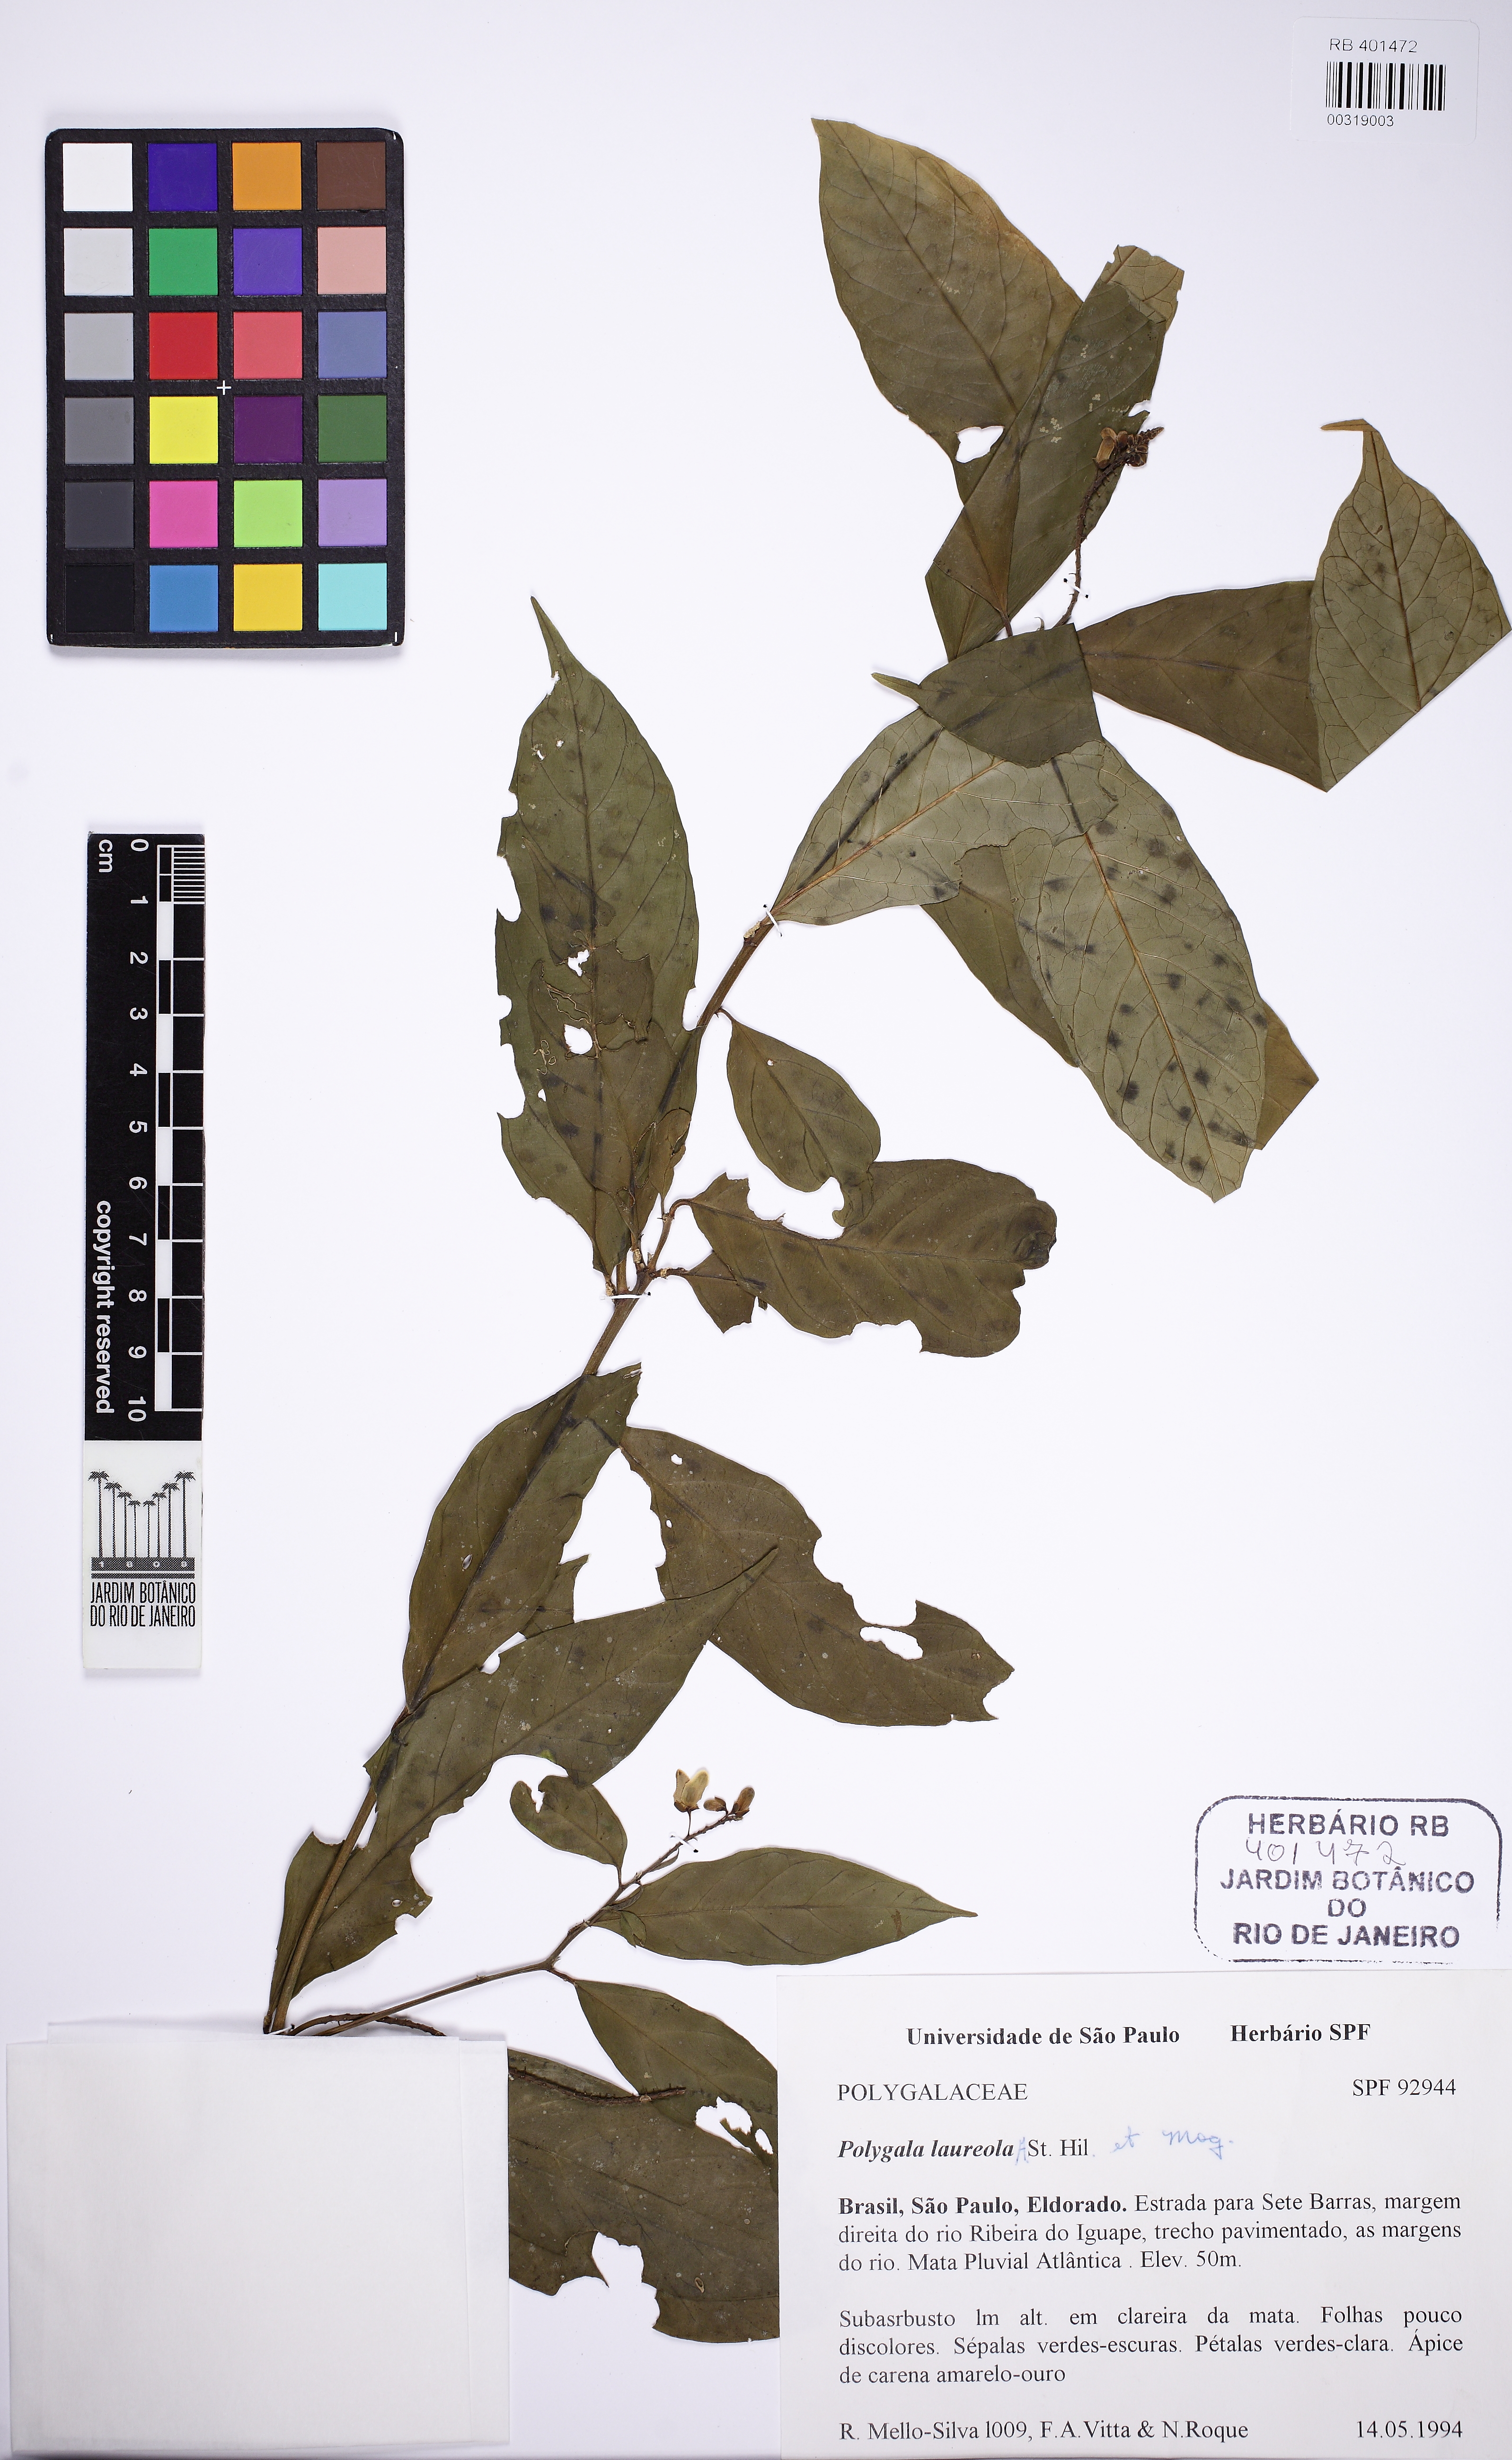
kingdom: Plantae
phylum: Tracheophyta
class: Magnoliopsida
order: Fabales
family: Polygalaceae
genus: Caamembeca
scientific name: Caamembeca salicifolia
